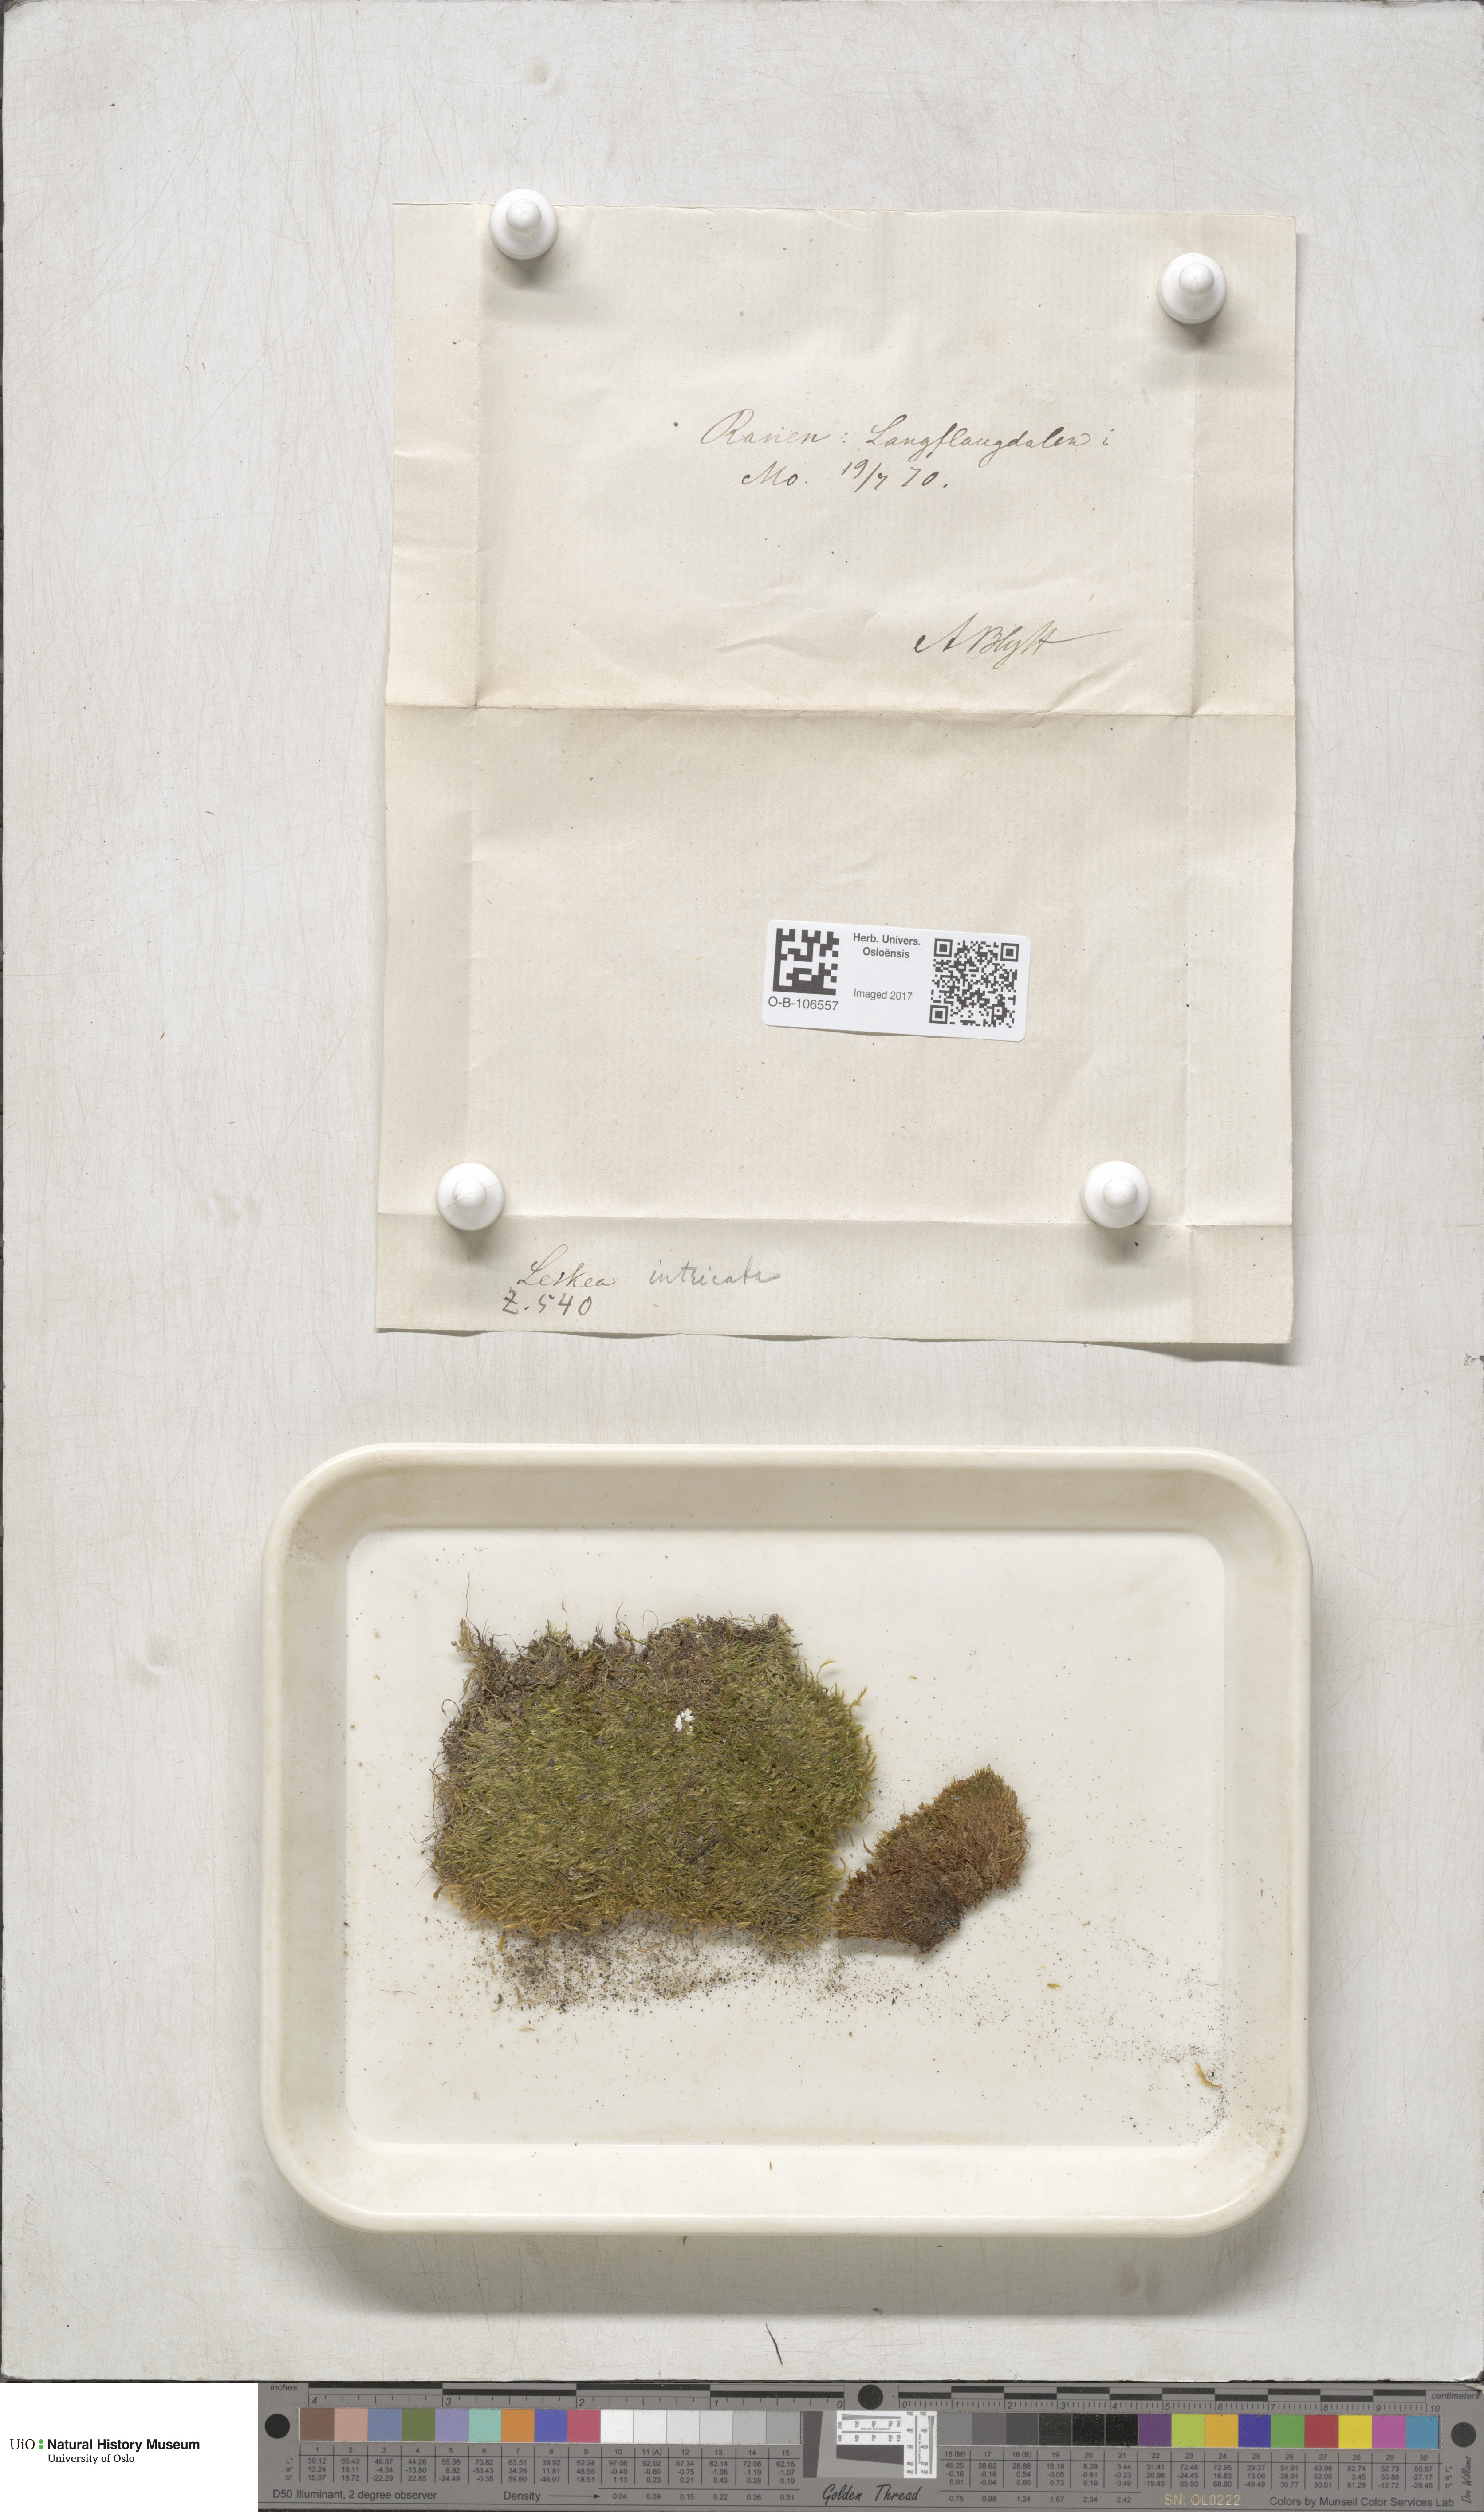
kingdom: Plantae
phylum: Bryophyta
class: Bryopsida
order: Hypnales
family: Plagiotheciaceae
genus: Orthothecium
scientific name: Orthothecium intricatum
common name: Fine-leaved erect-capsule moss
